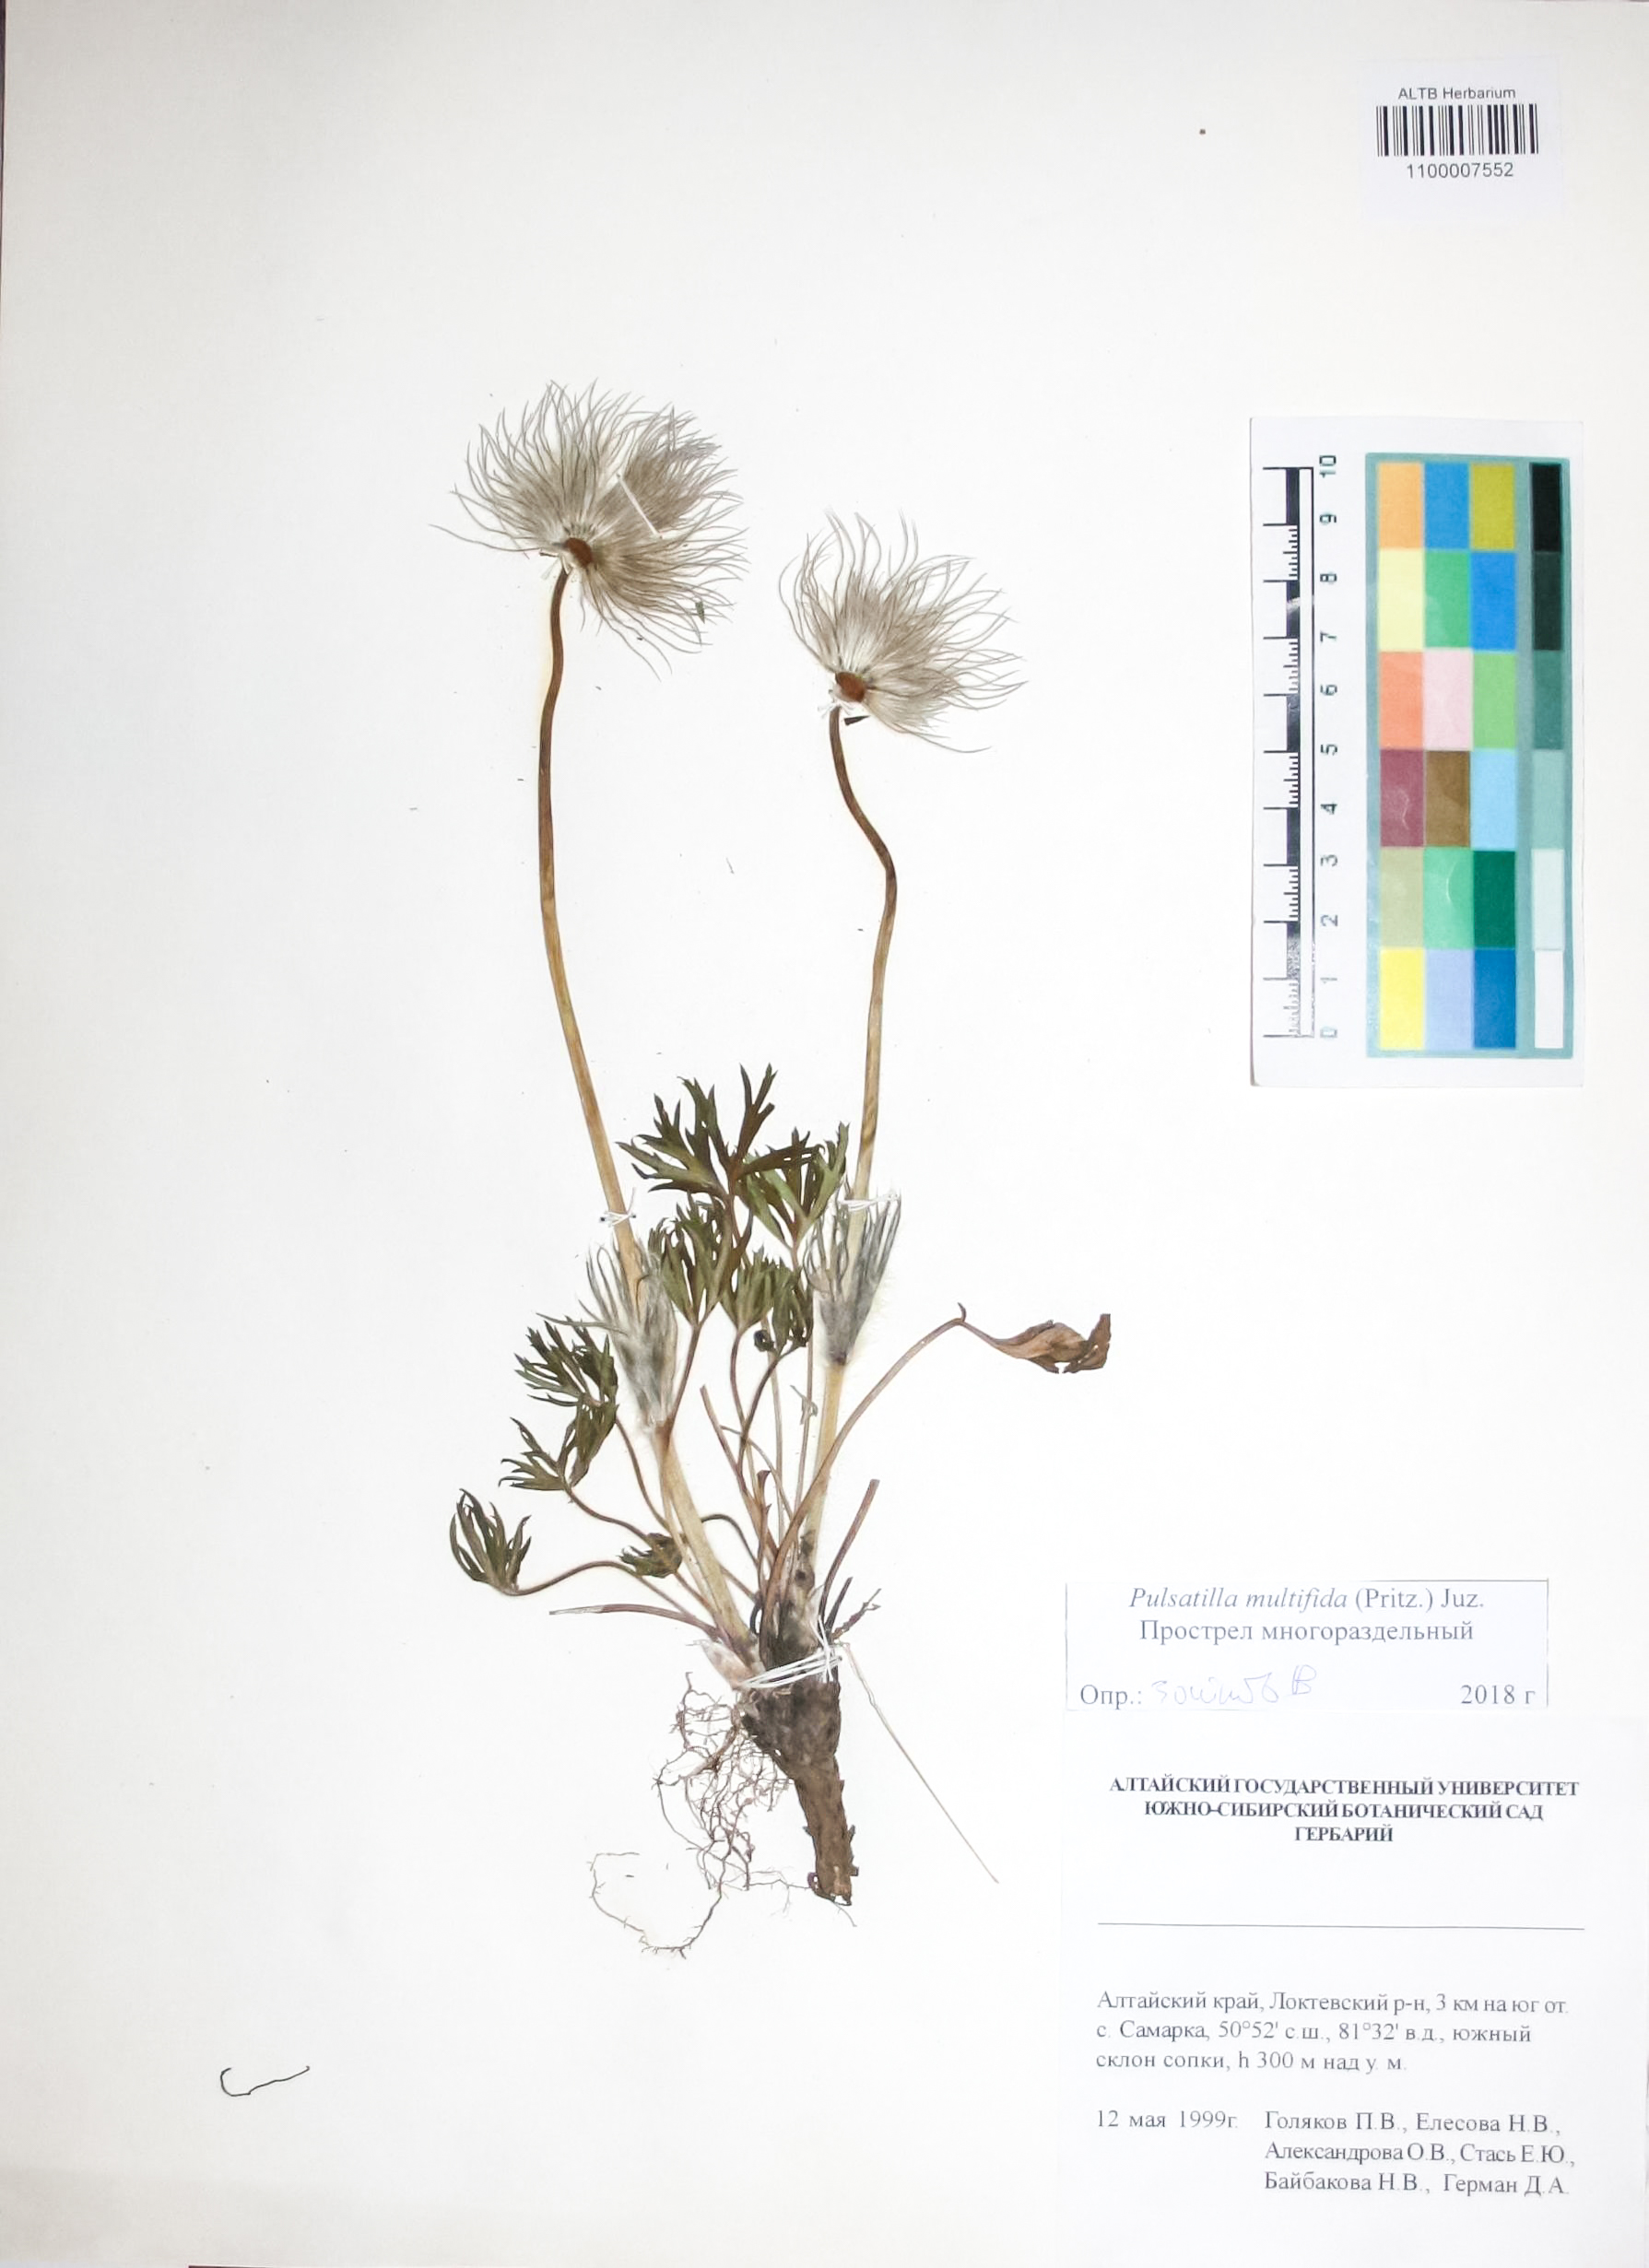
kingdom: Plantae
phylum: Tracheophyta
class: Magnoliopsida
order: Ranunculales
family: Ranunculaceae
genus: Pulsatilla
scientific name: Pulsatilla patens
